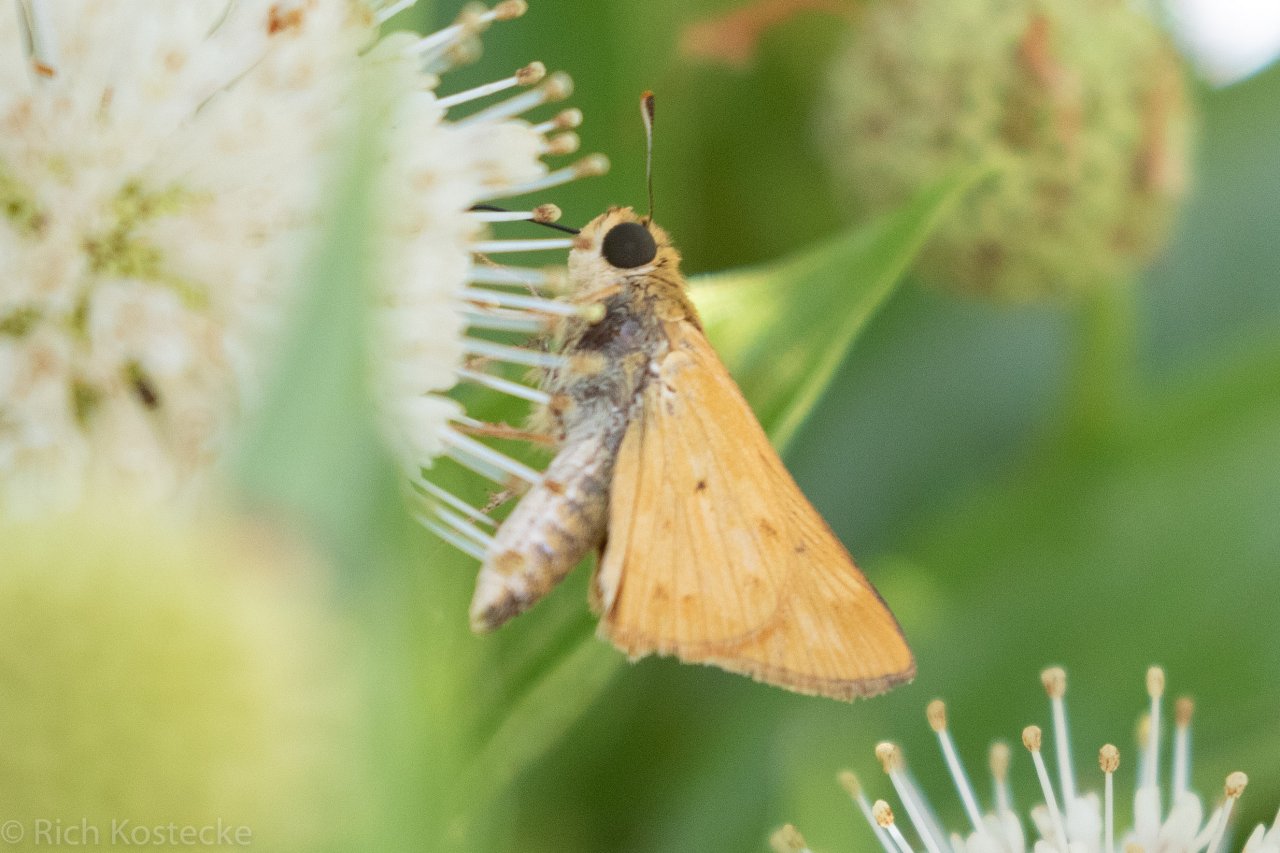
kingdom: Animalia
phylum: Arthropoda
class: Insecta
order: Lepidoptera
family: Hesperiidae
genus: Hylephila
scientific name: Hylephila phyleus
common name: Fiery Skipper
